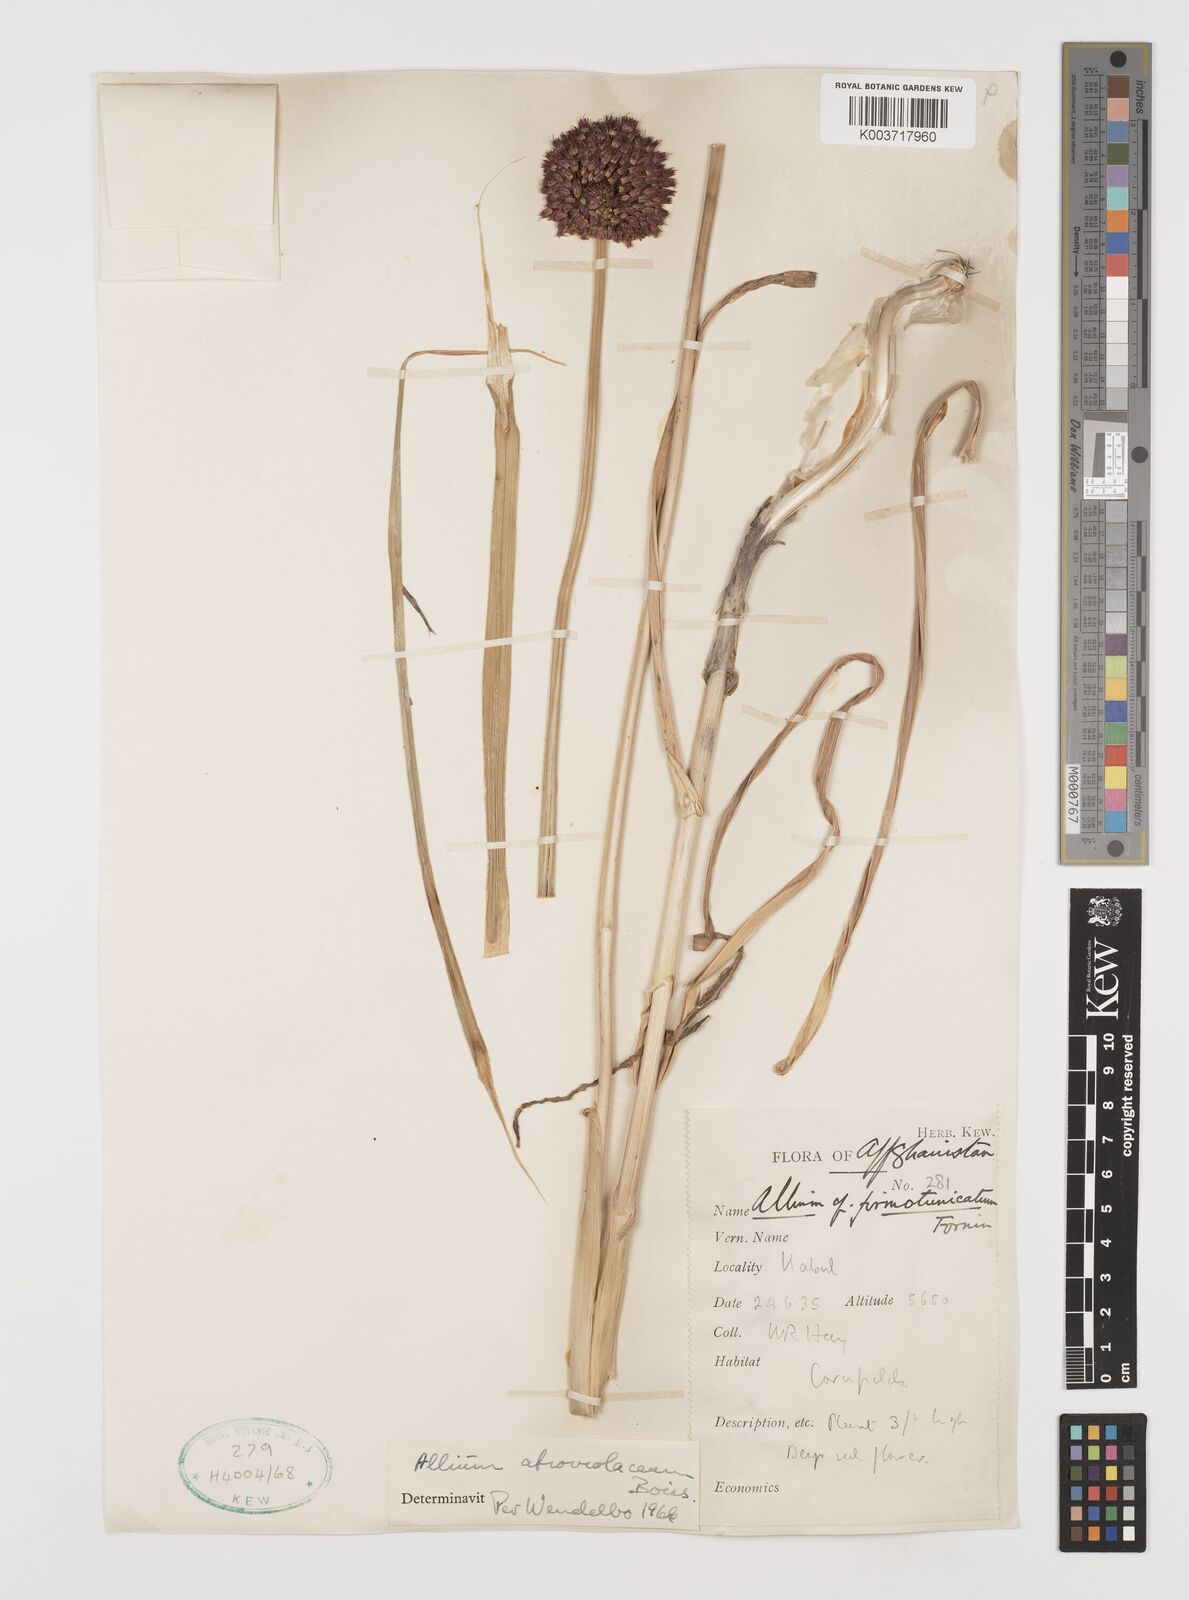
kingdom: Plantae
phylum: Tracheophyta
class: Liliopsida
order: Asparagales
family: Amaryllidaceae
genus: Allium
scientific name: Allium atroviolaceum
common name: Broadleaf wild leek
